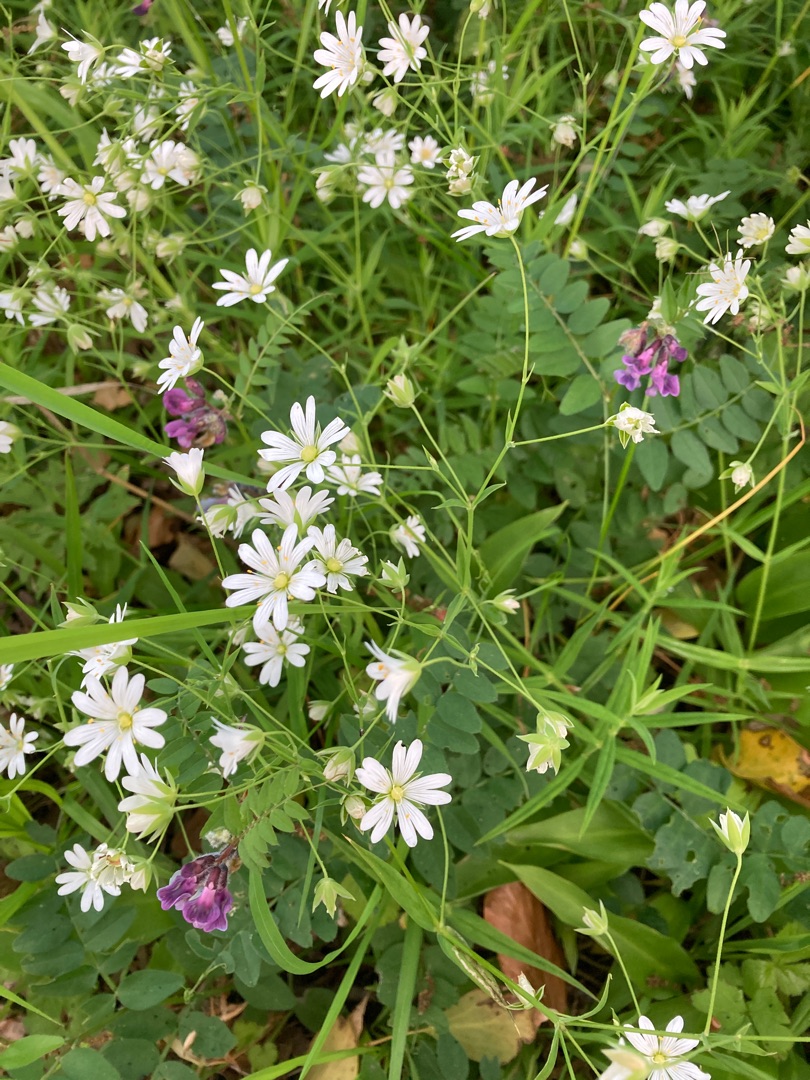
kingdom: Plantae
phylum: Tracheophyta
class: Magnoliopsida
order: Caryophyllales
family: Caryophyllaceae
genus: Rabelera
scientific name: Rabelera holostea
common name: Stor fladstjerne
